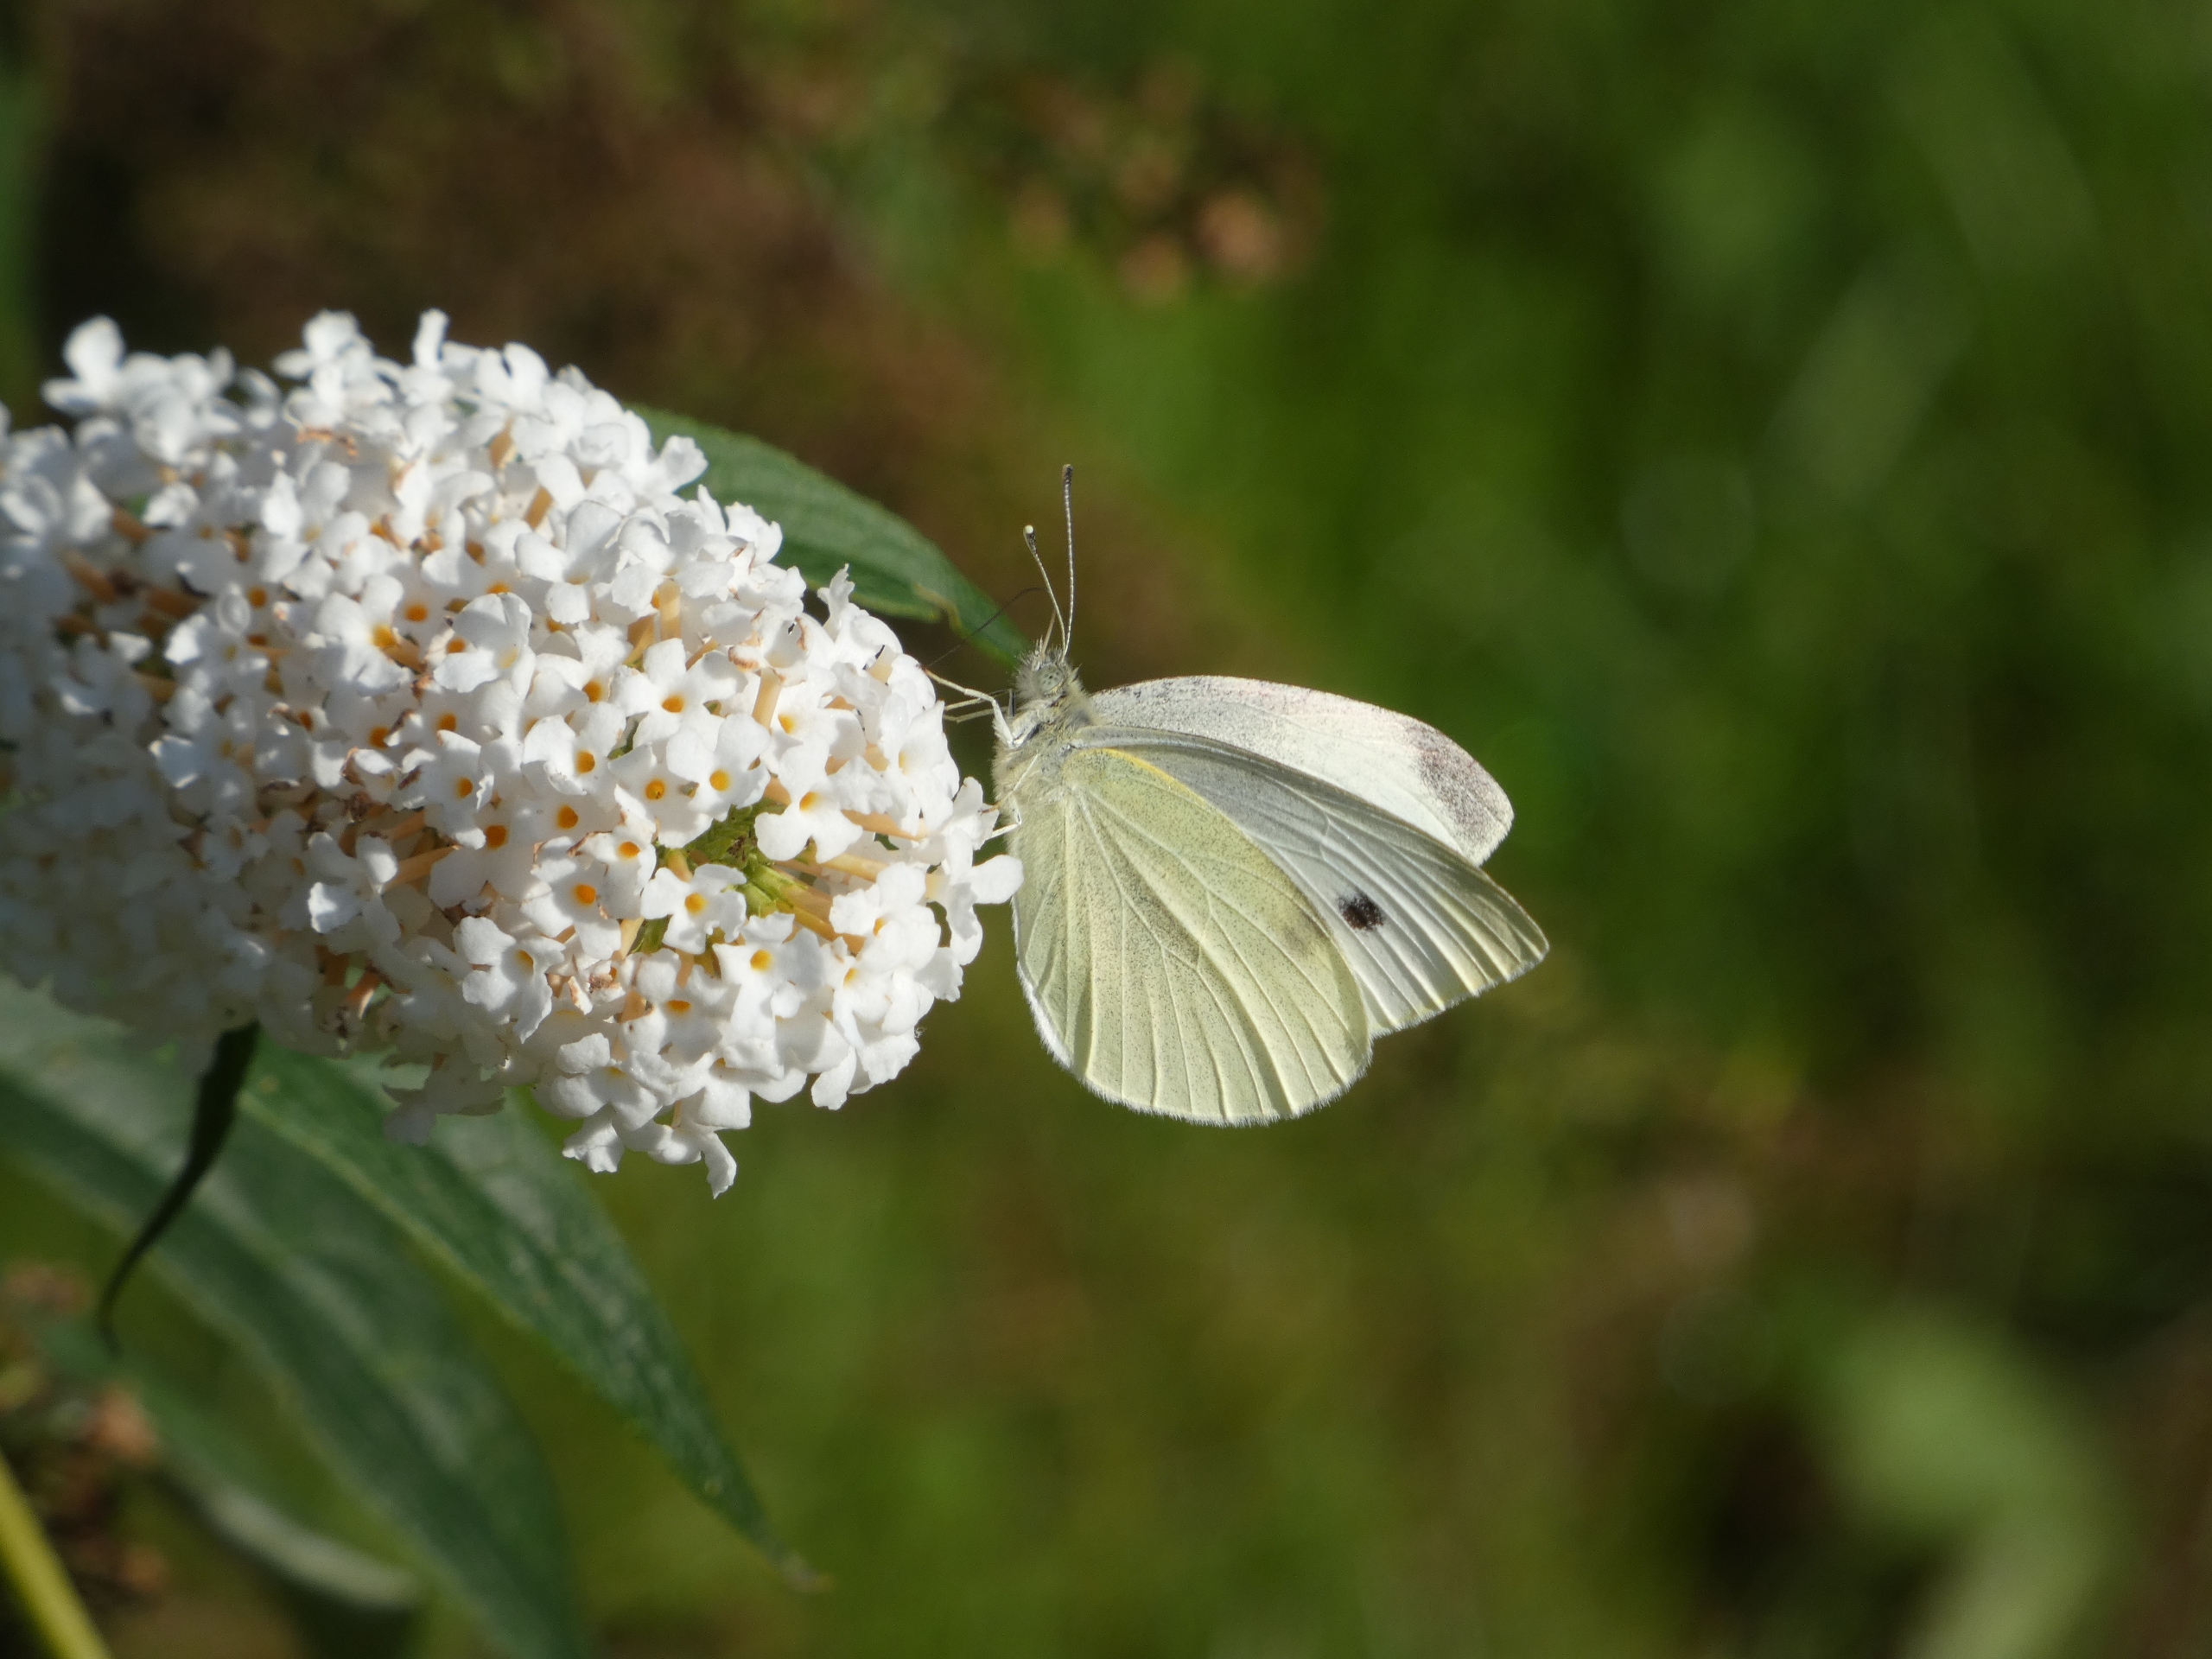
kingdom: Animalia
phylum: Arthropoda
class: Insecta
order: Lepidoptera
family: Pieridae
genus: Pieris
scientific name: Pieris rapae
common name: Lille kålsommerfugl
